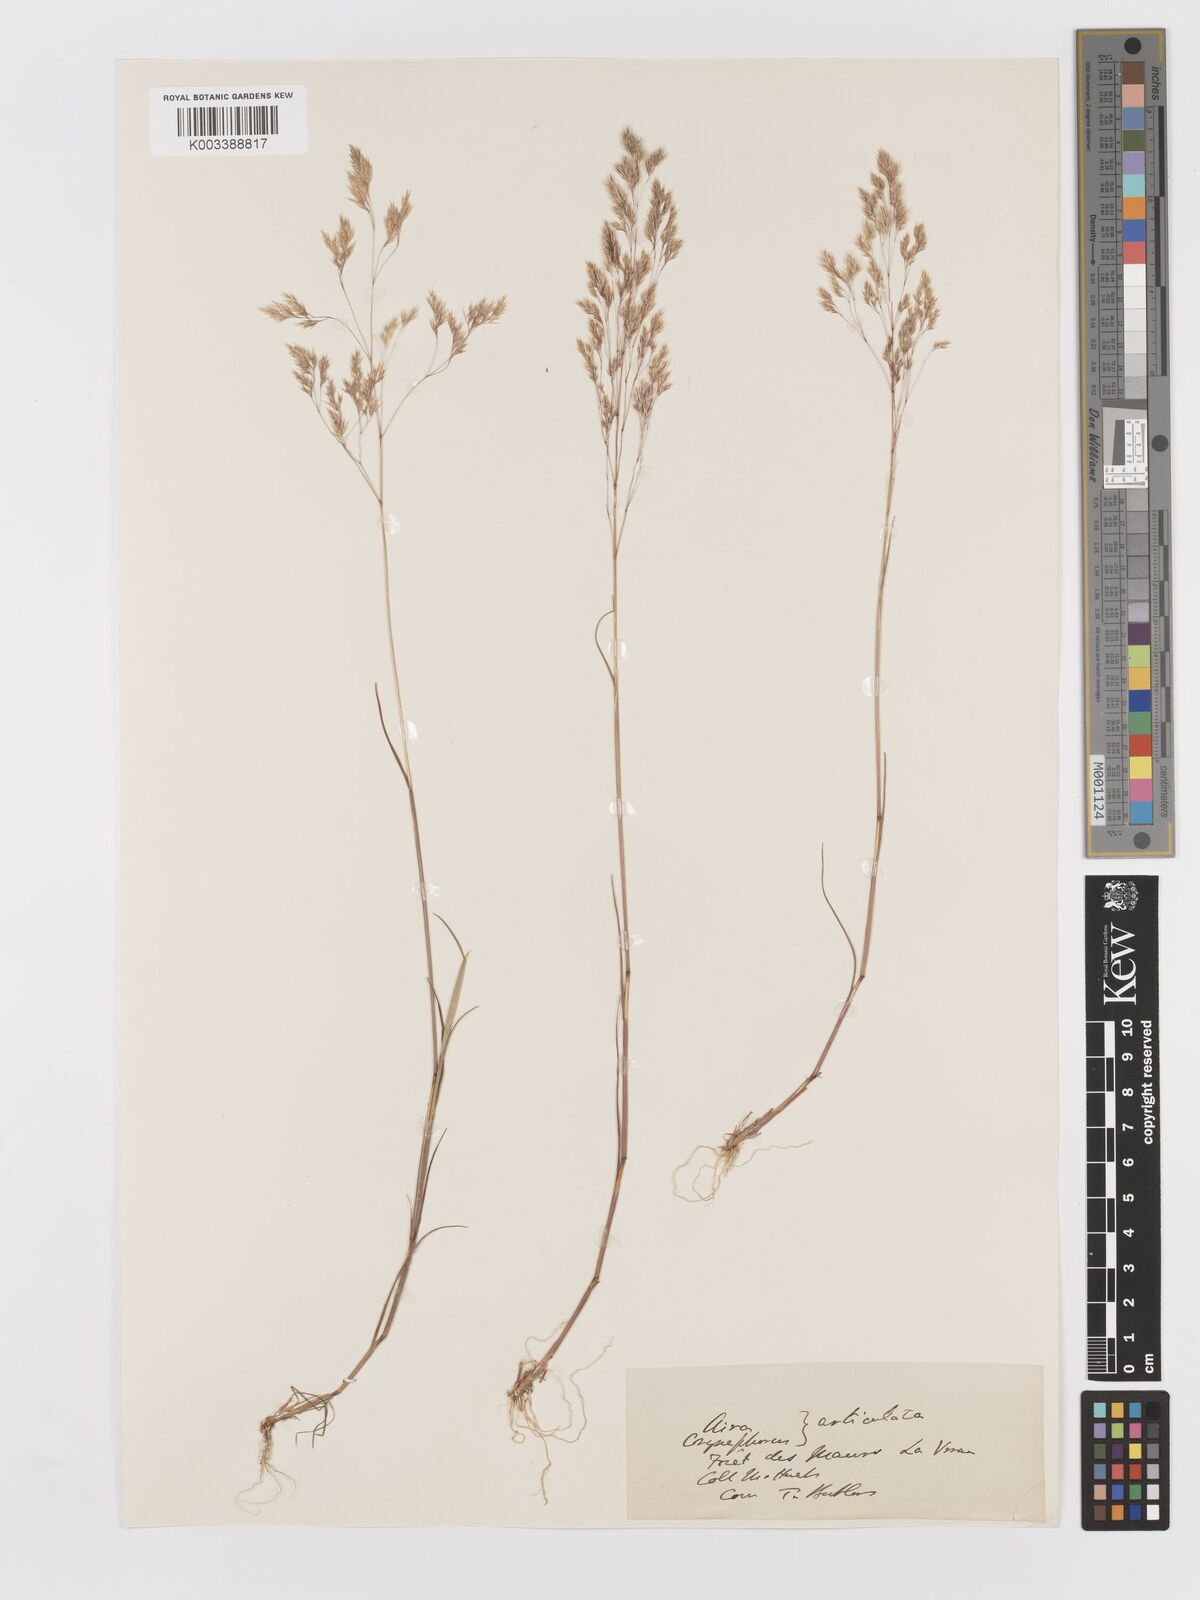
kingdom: Plantae
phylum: Tracheophyta
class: Liliopsida
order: Poales
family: Poaceae
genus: Corynephorus
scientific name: Corynephorus divaricatus
